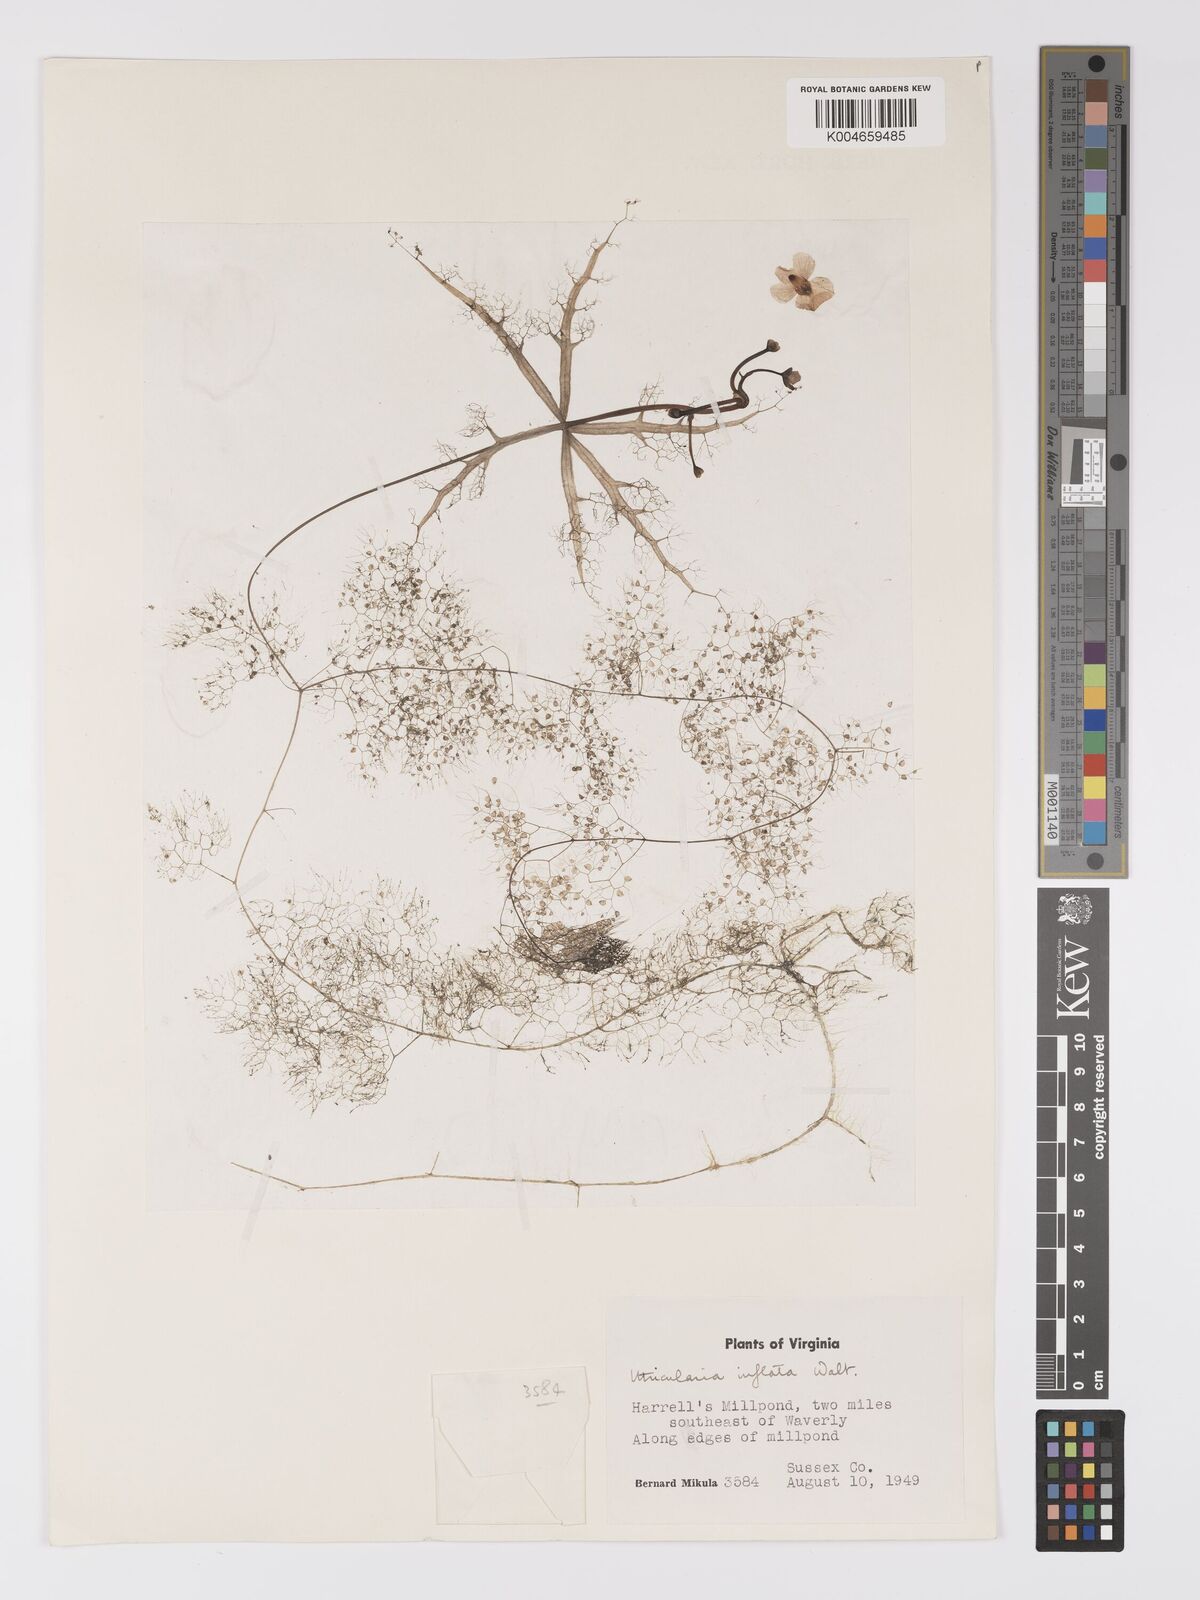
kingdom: Plantae
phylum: Tracheophyta
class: Magnoliopsida
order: Lamiales
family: Lentibulariaceae
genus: Utricularia
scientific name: Utricularia radiata
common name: Floating bladderwort
